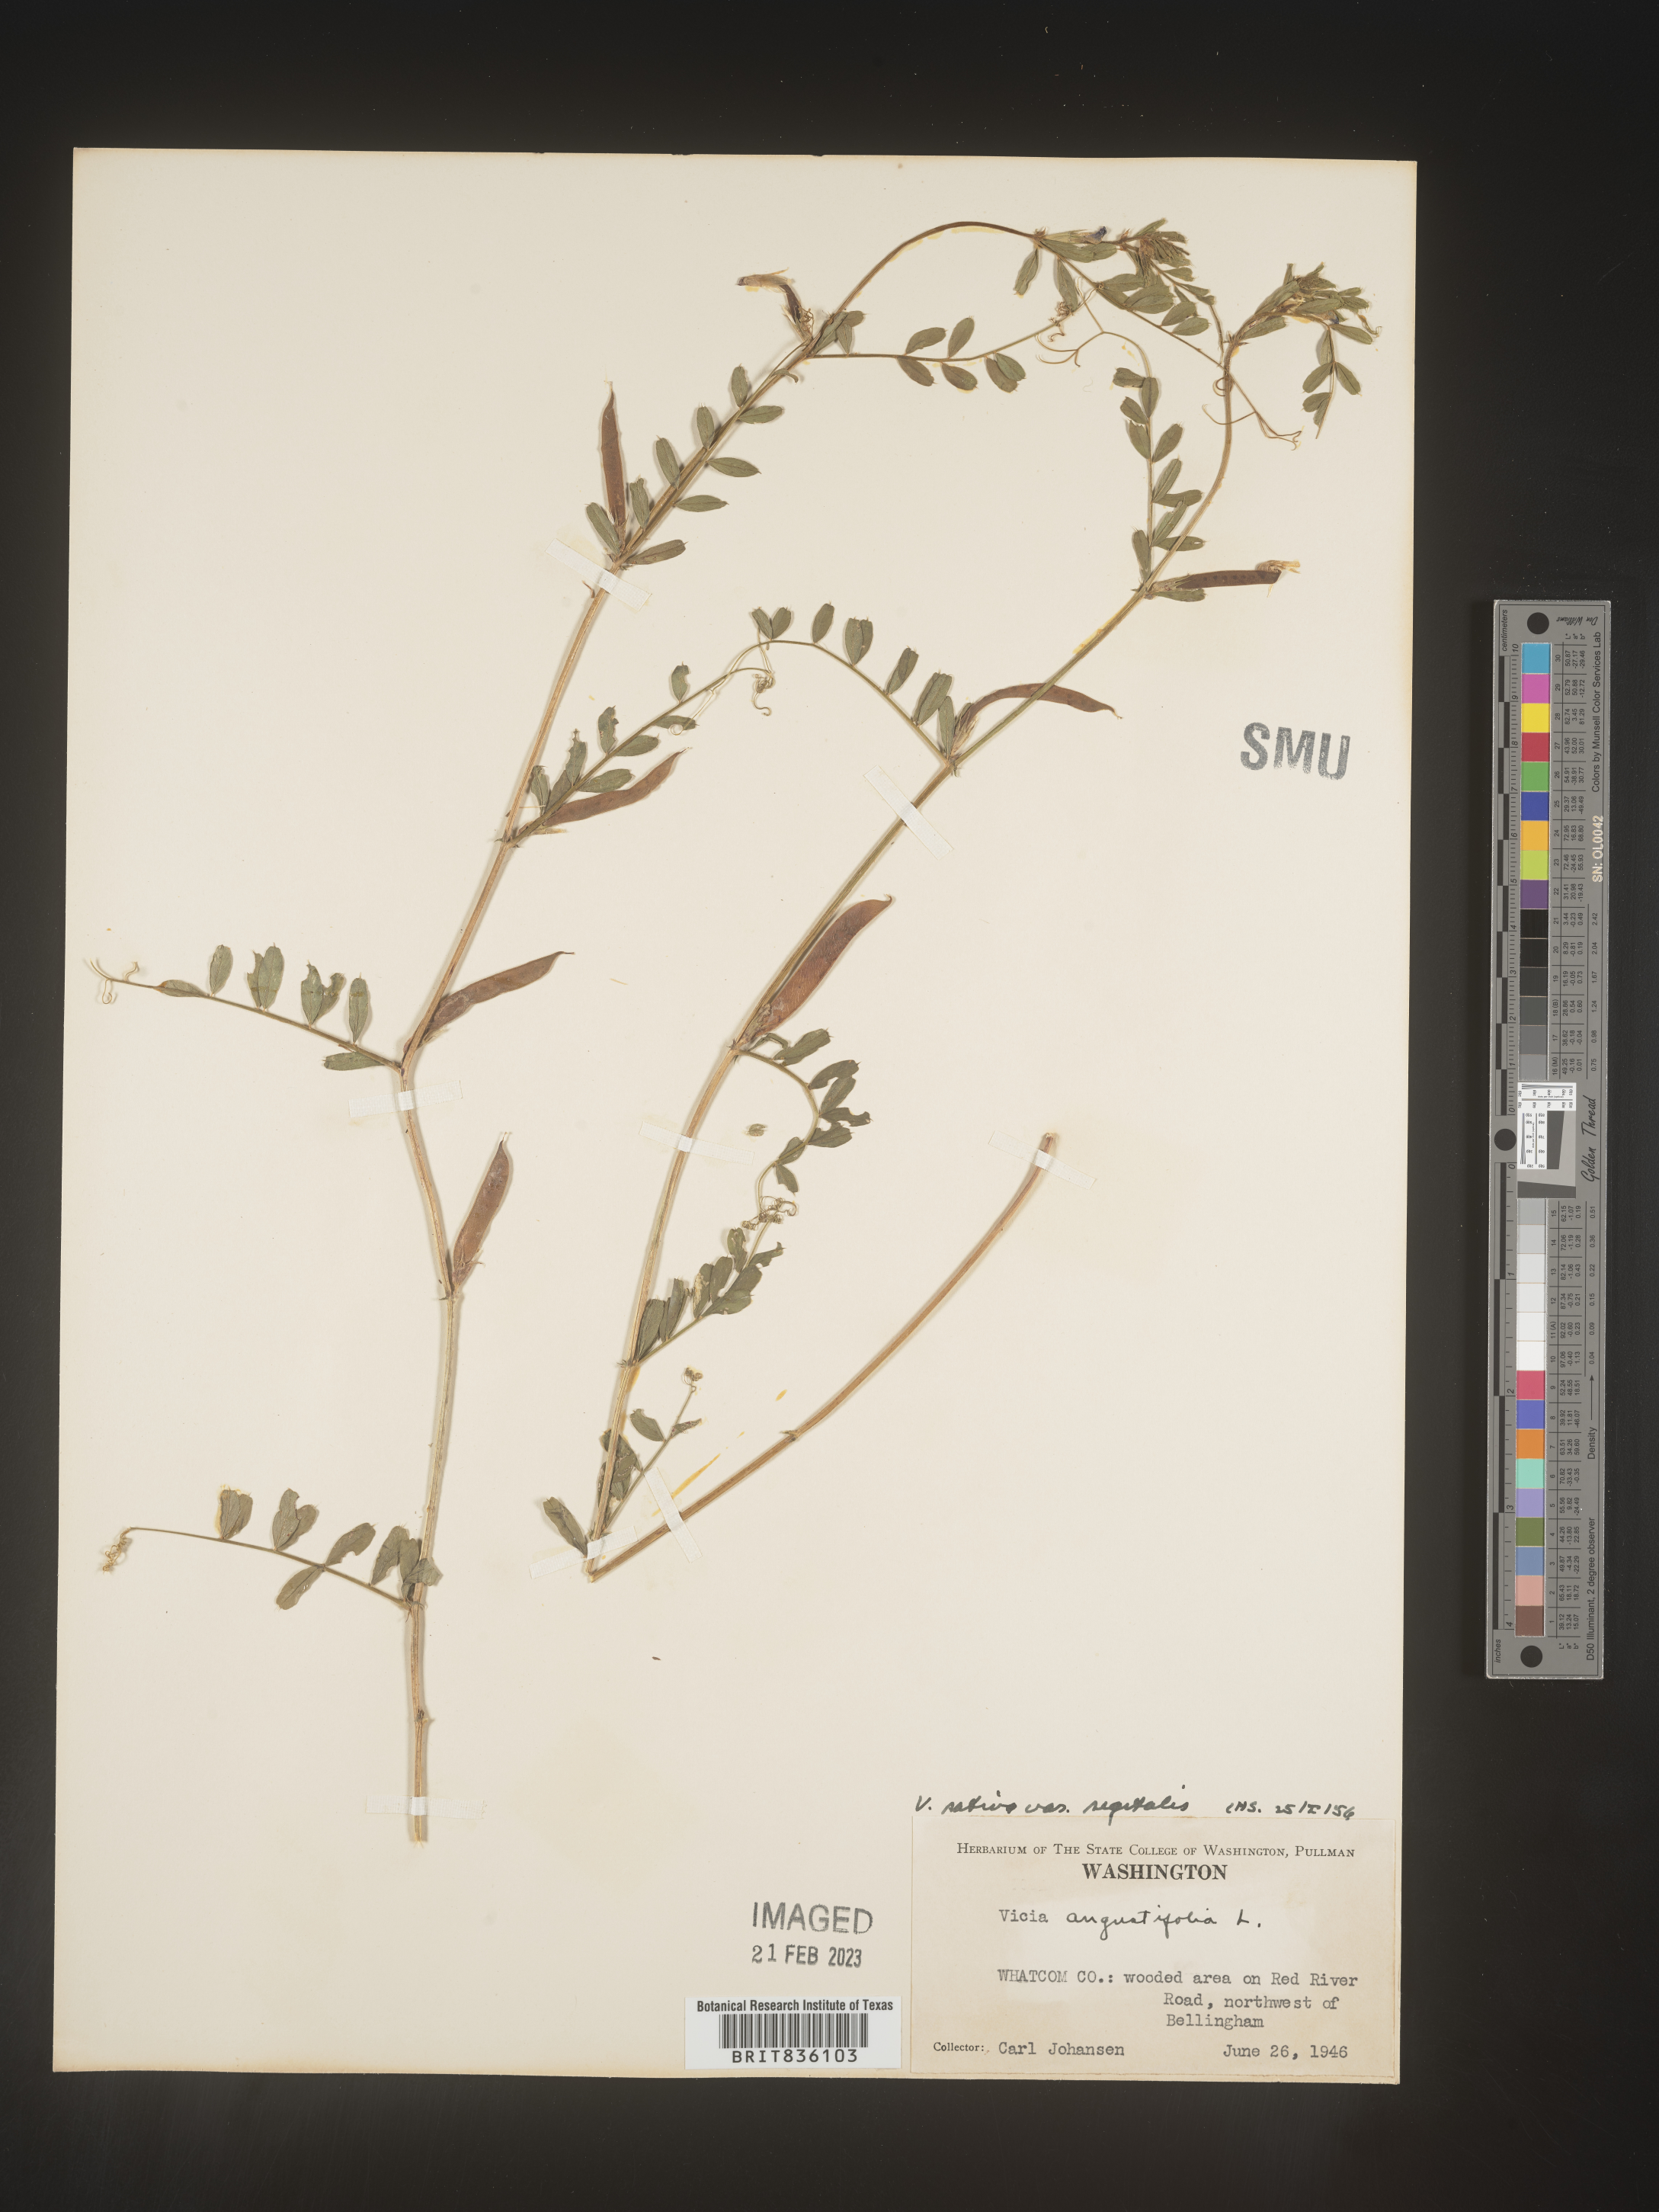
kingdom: Plantae
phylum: Tracheophyta
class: Magnoliopsida
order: Fabales
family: Fabaceae
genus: Vicia
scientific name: Vicia sativa
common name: Garden vetch
